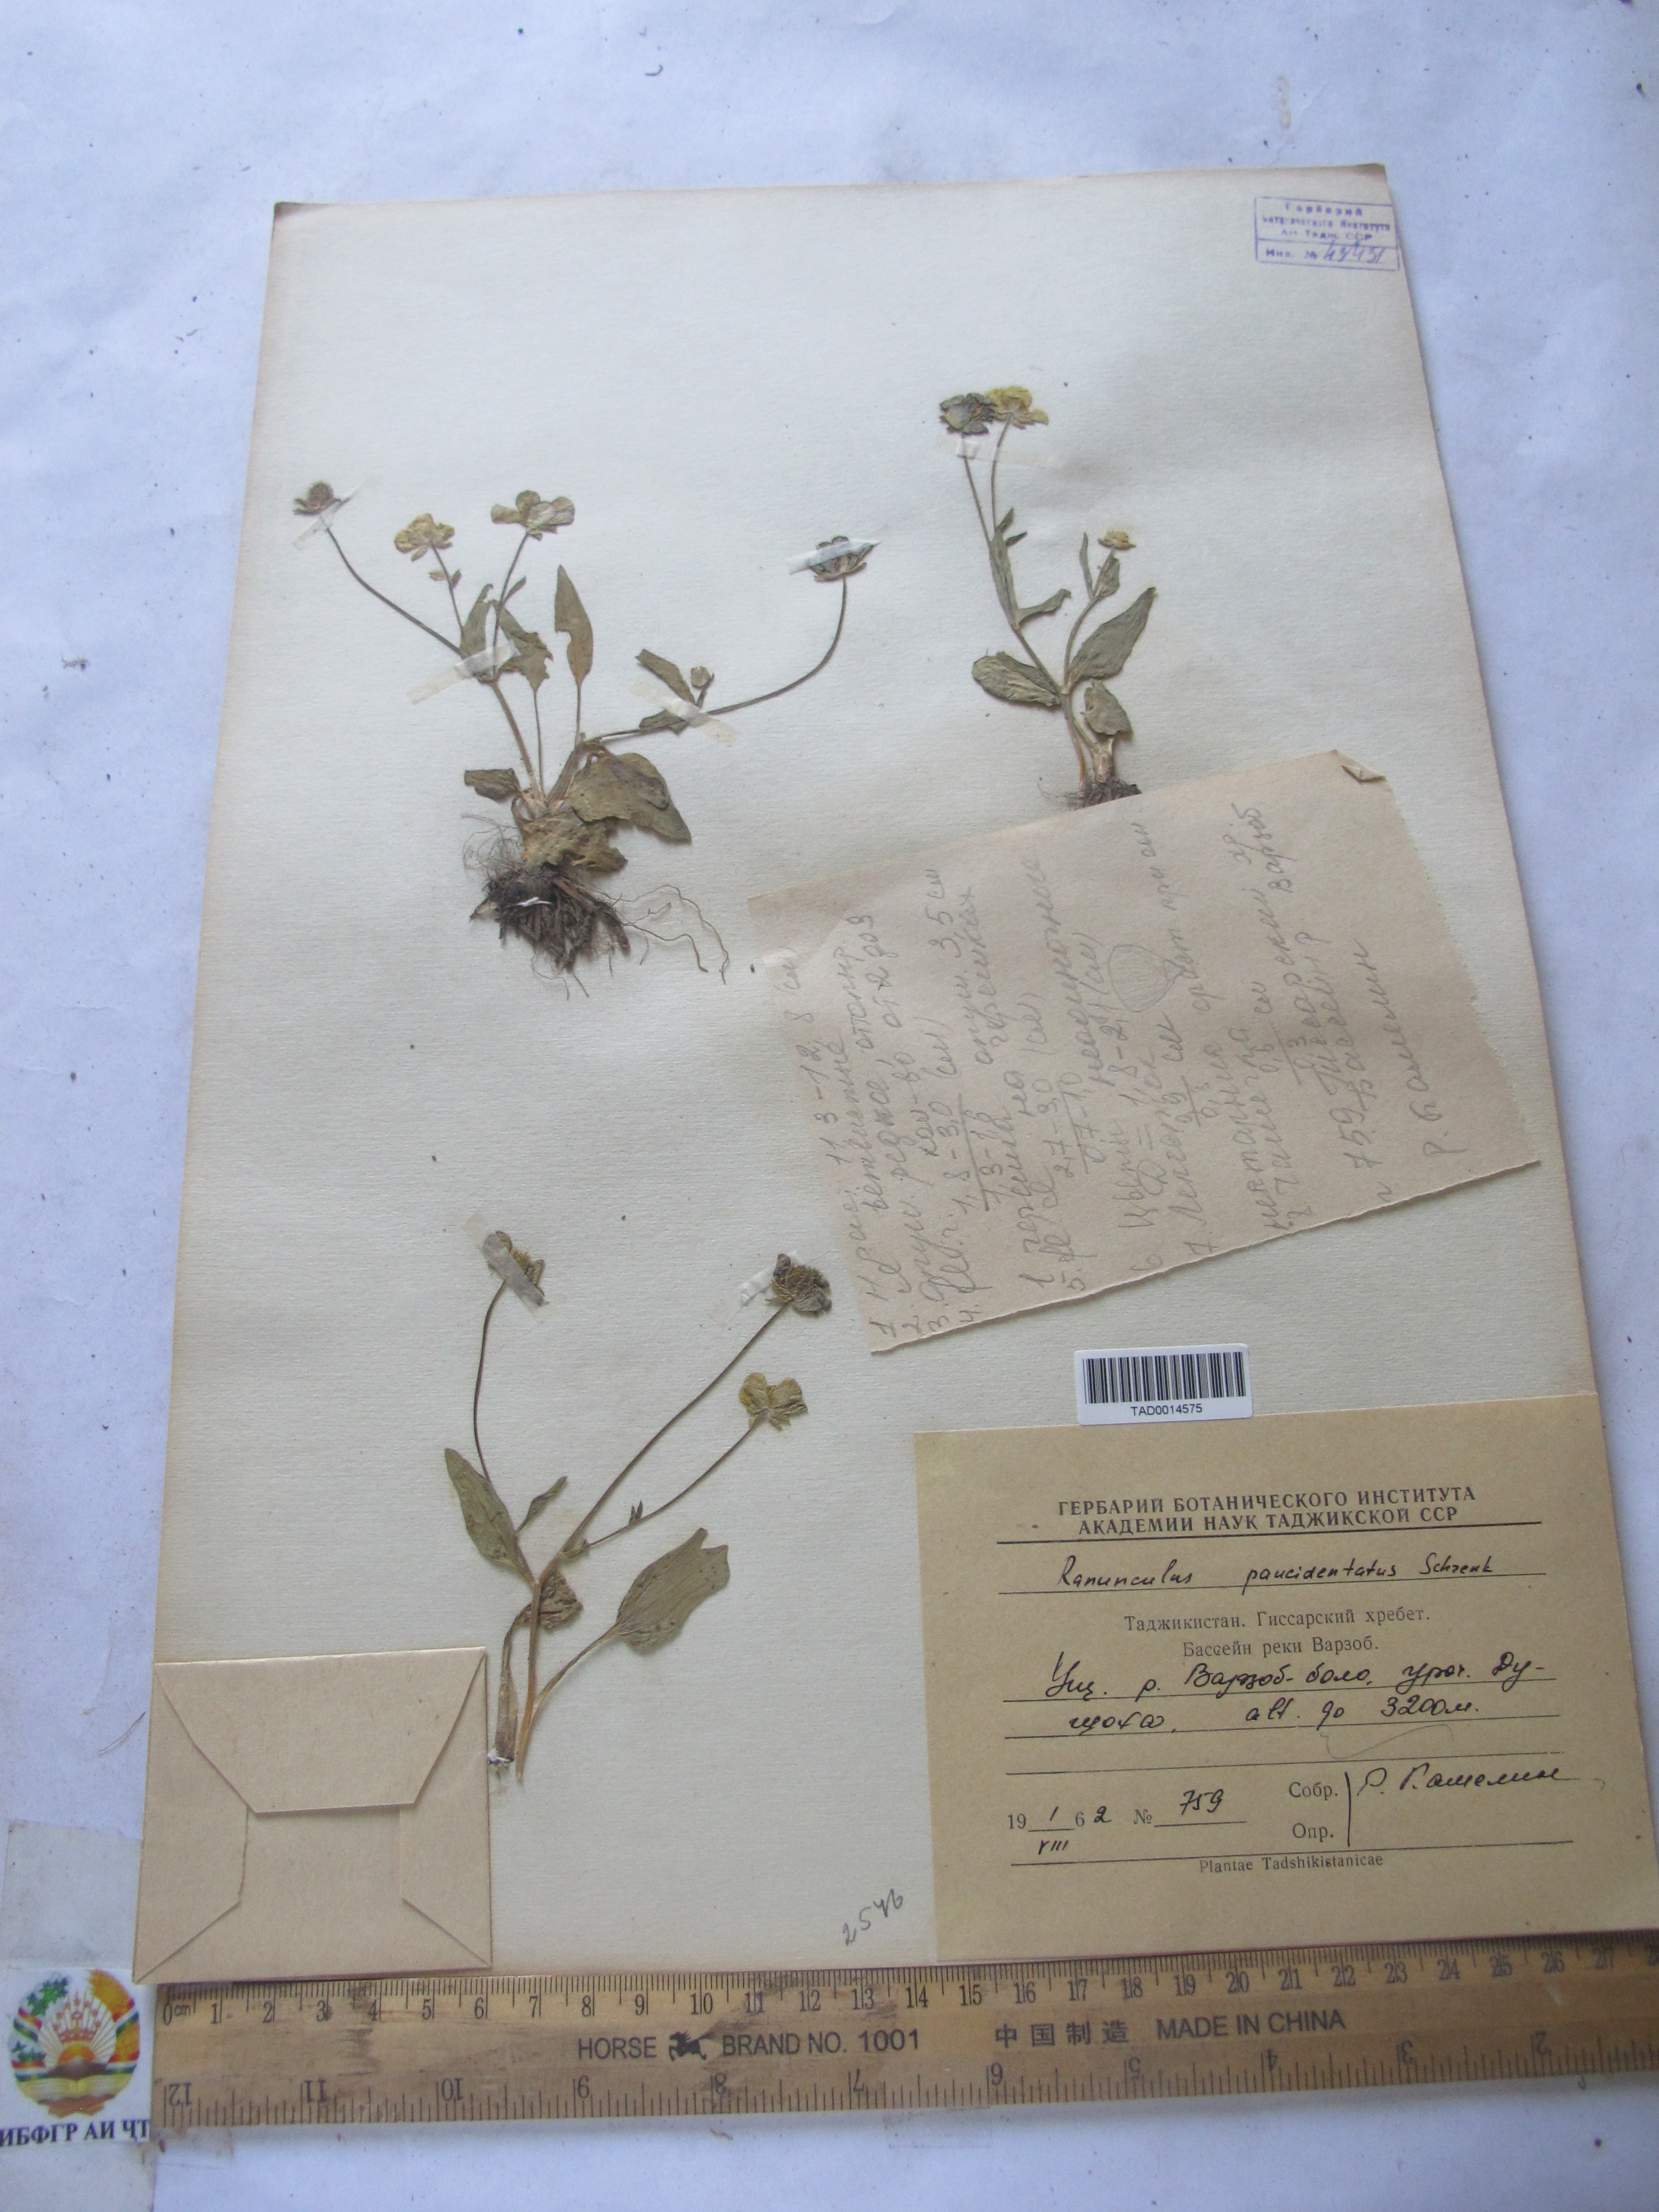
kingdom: Plantae
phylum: Tracheophyta
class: Magnoliopsida
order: Ranunculales
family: Ranunculaceae
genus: Ranunculus
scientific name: Ranunculus paucidentatus
